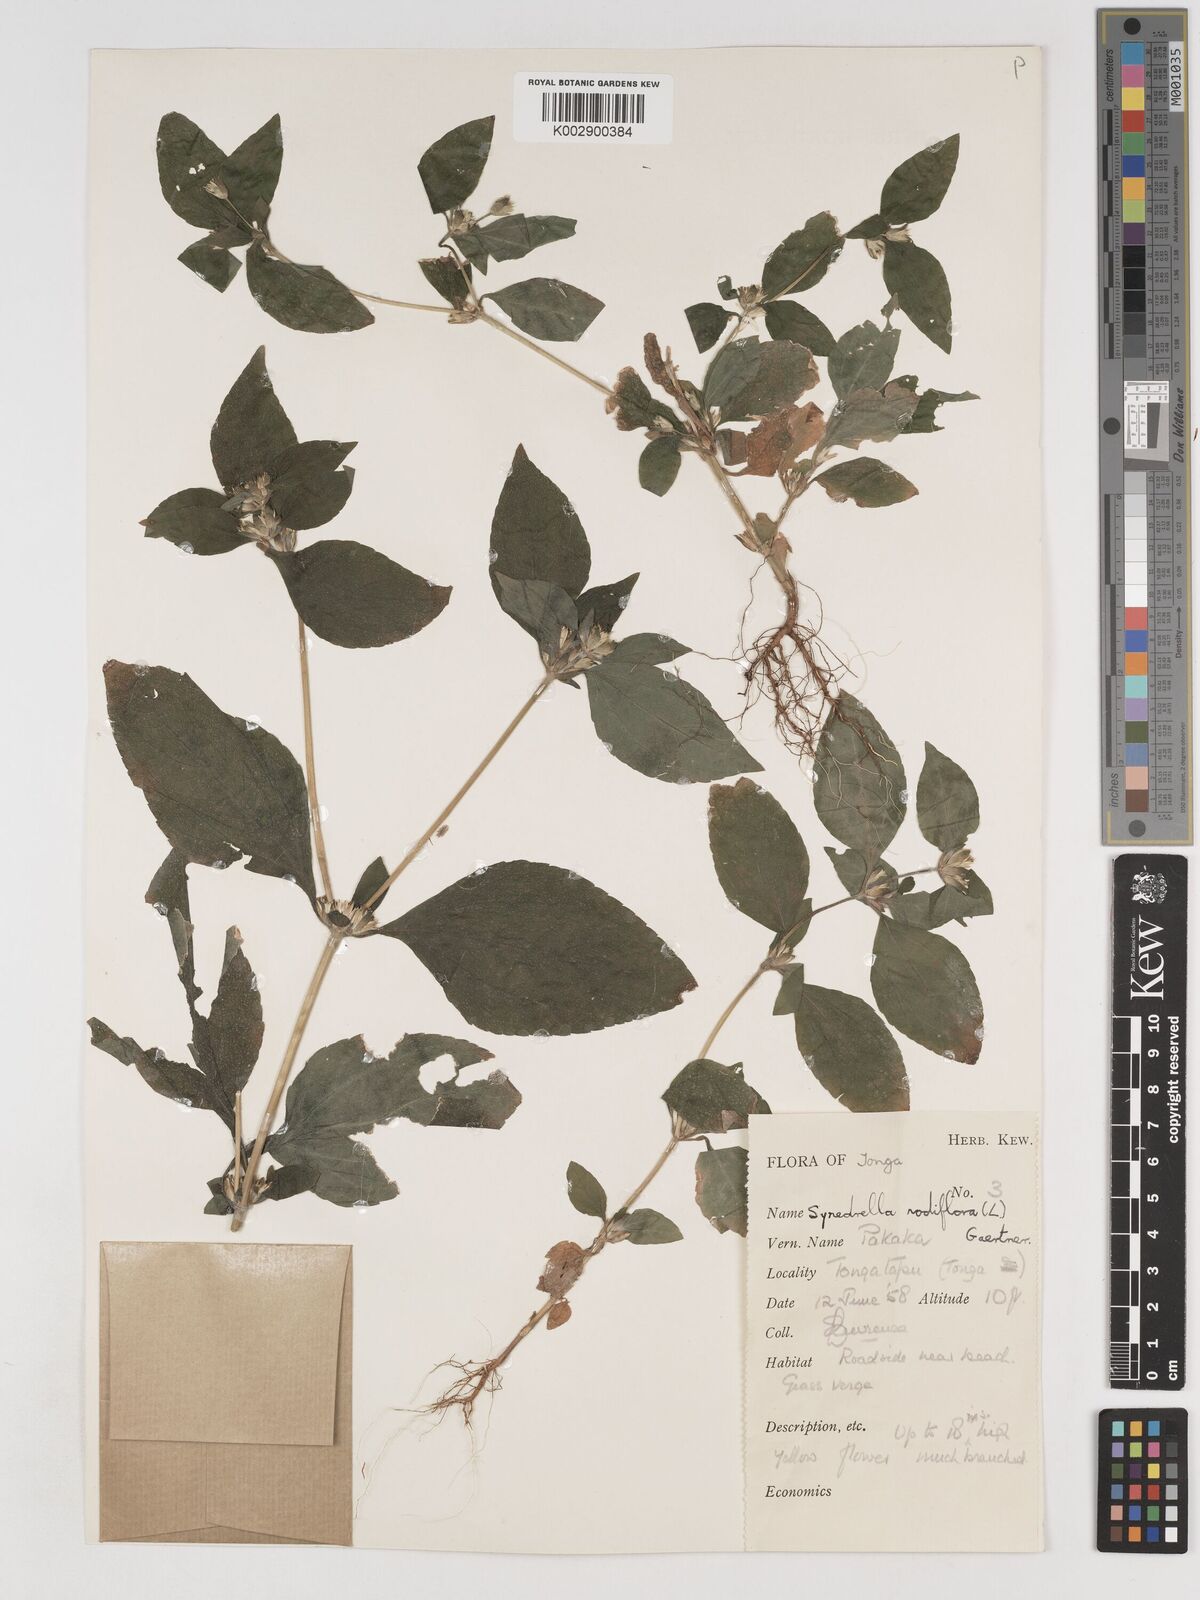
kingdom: Plantae
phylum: Tracheophyta
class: Magnoliopsida
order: Asterales
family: Asteraceae
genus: Synedrella
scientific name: Synedrella nodiflora
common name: Nodeweed
